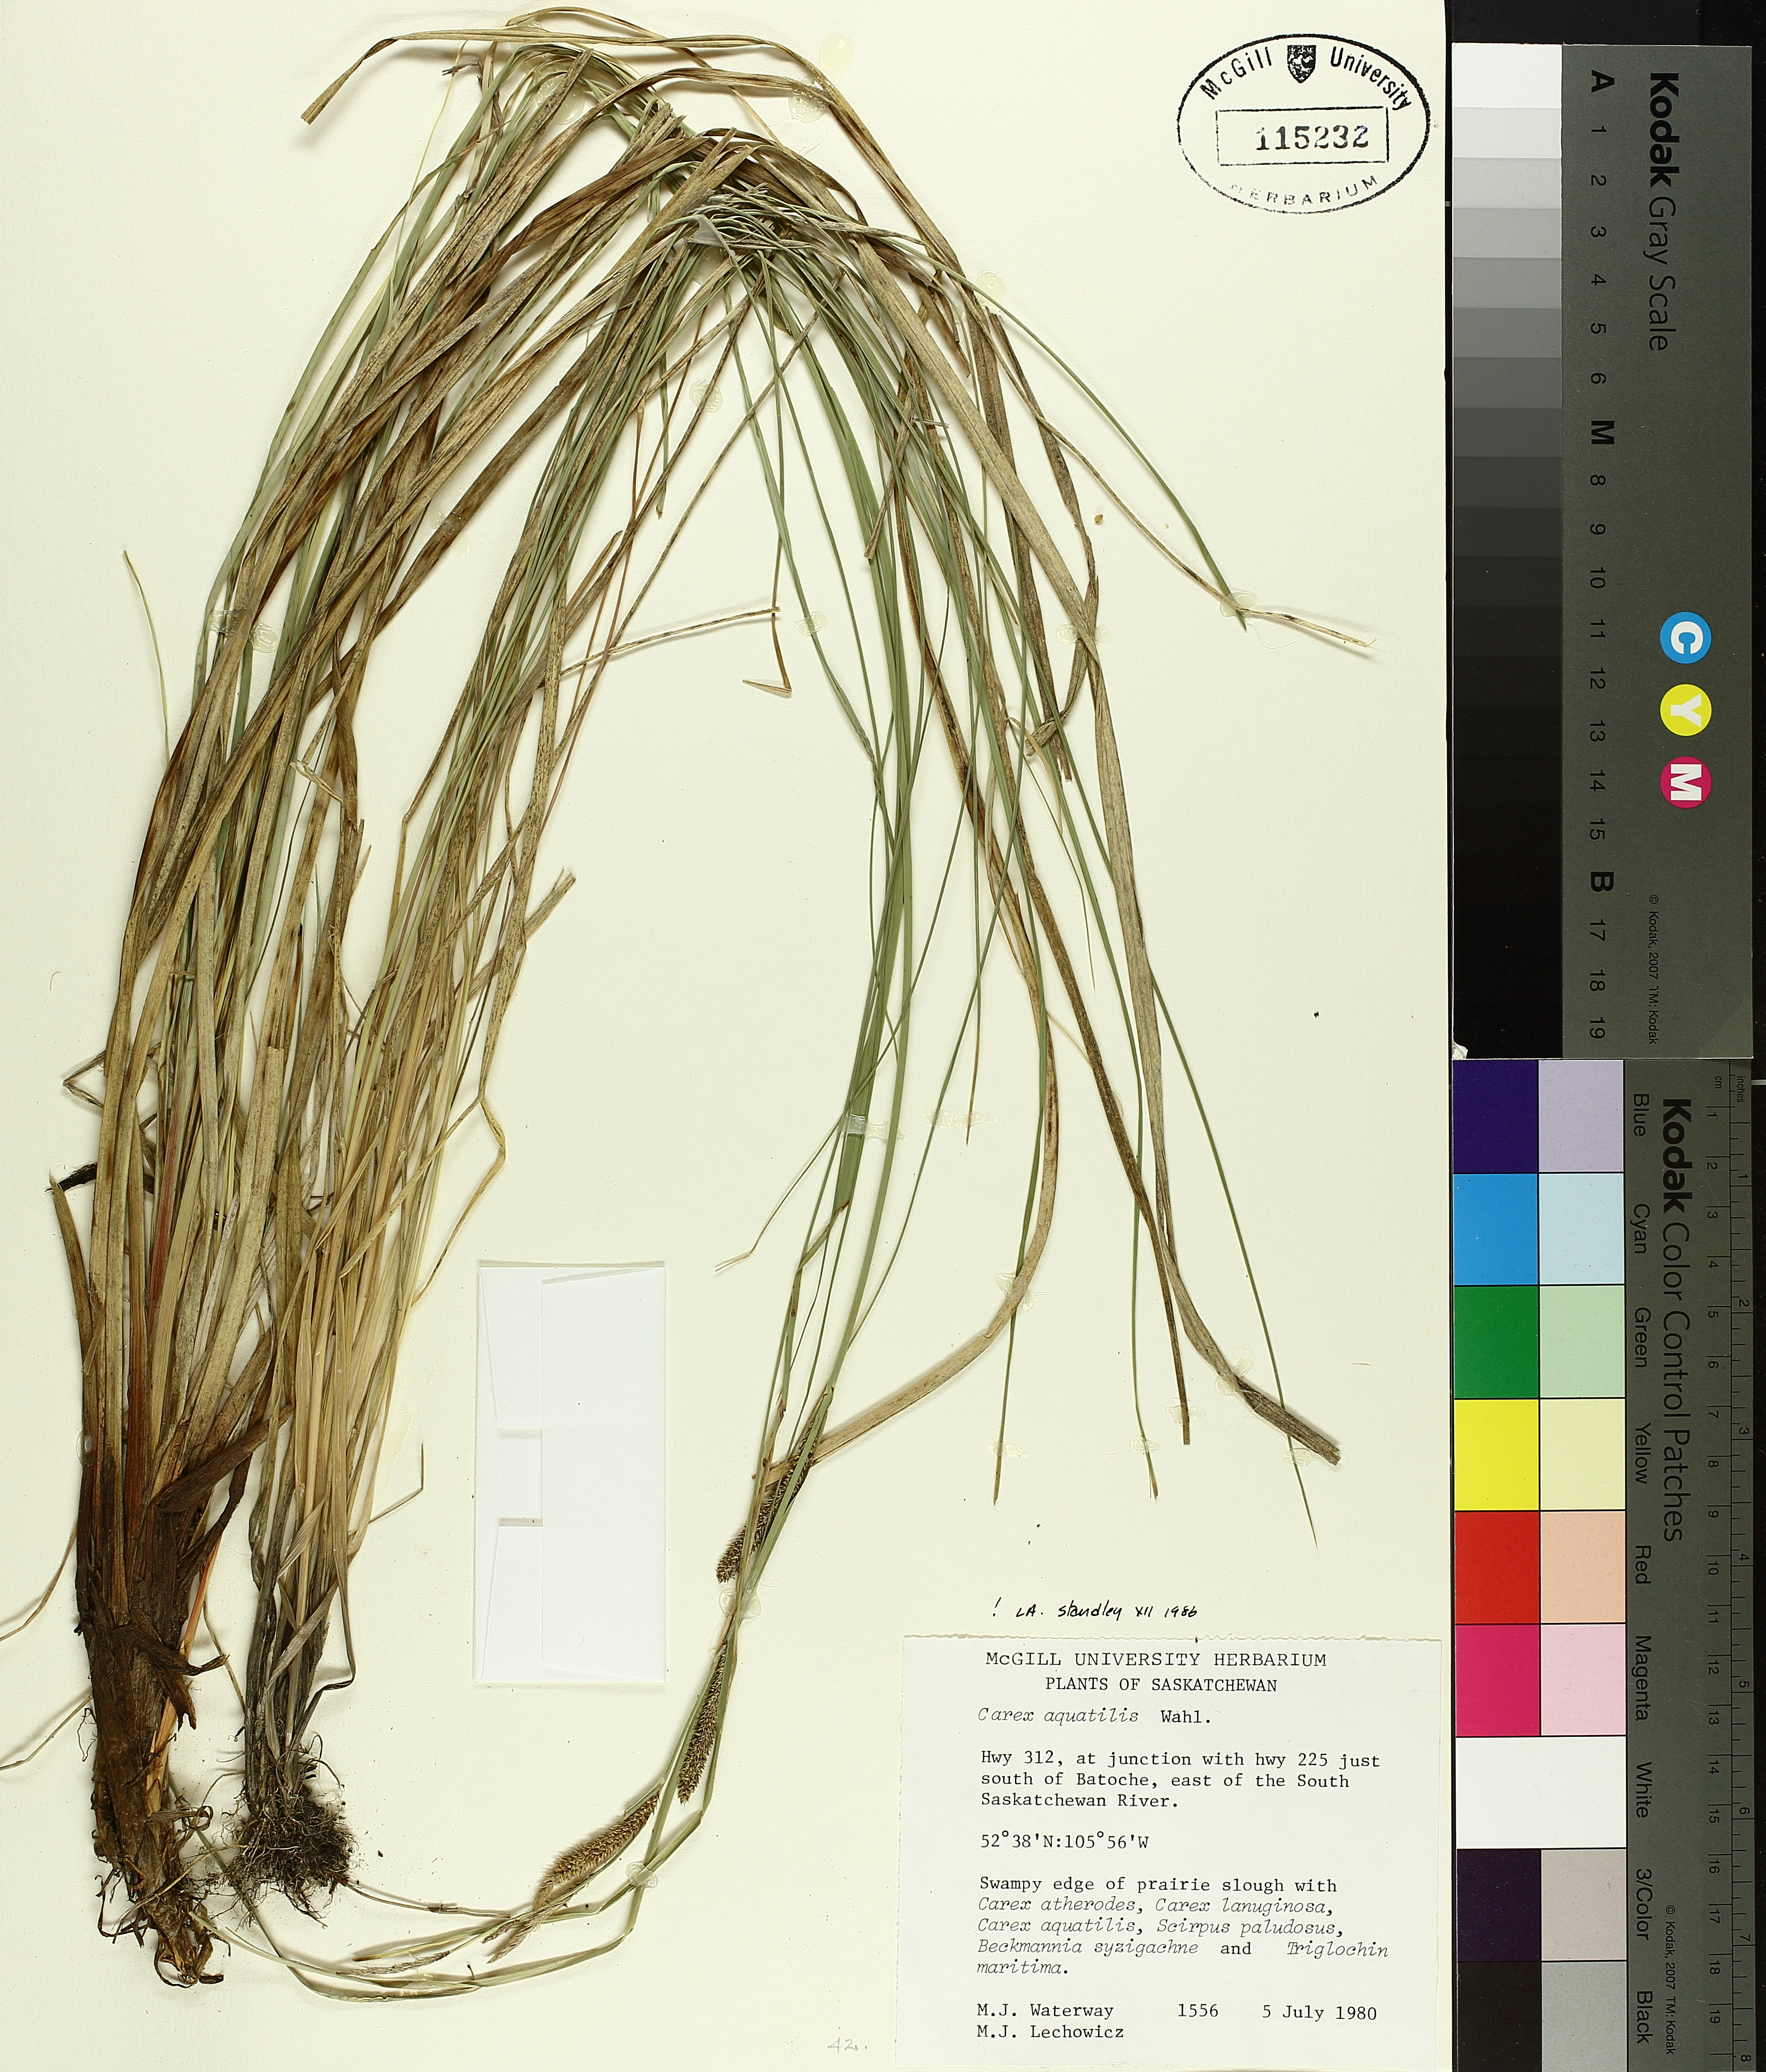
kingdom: Plantae
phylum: Tracheophyta
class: Liliopsida
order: Poales
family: Cyperaceae
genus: Carex
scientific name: Carex aquatilis
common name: Water sedge
